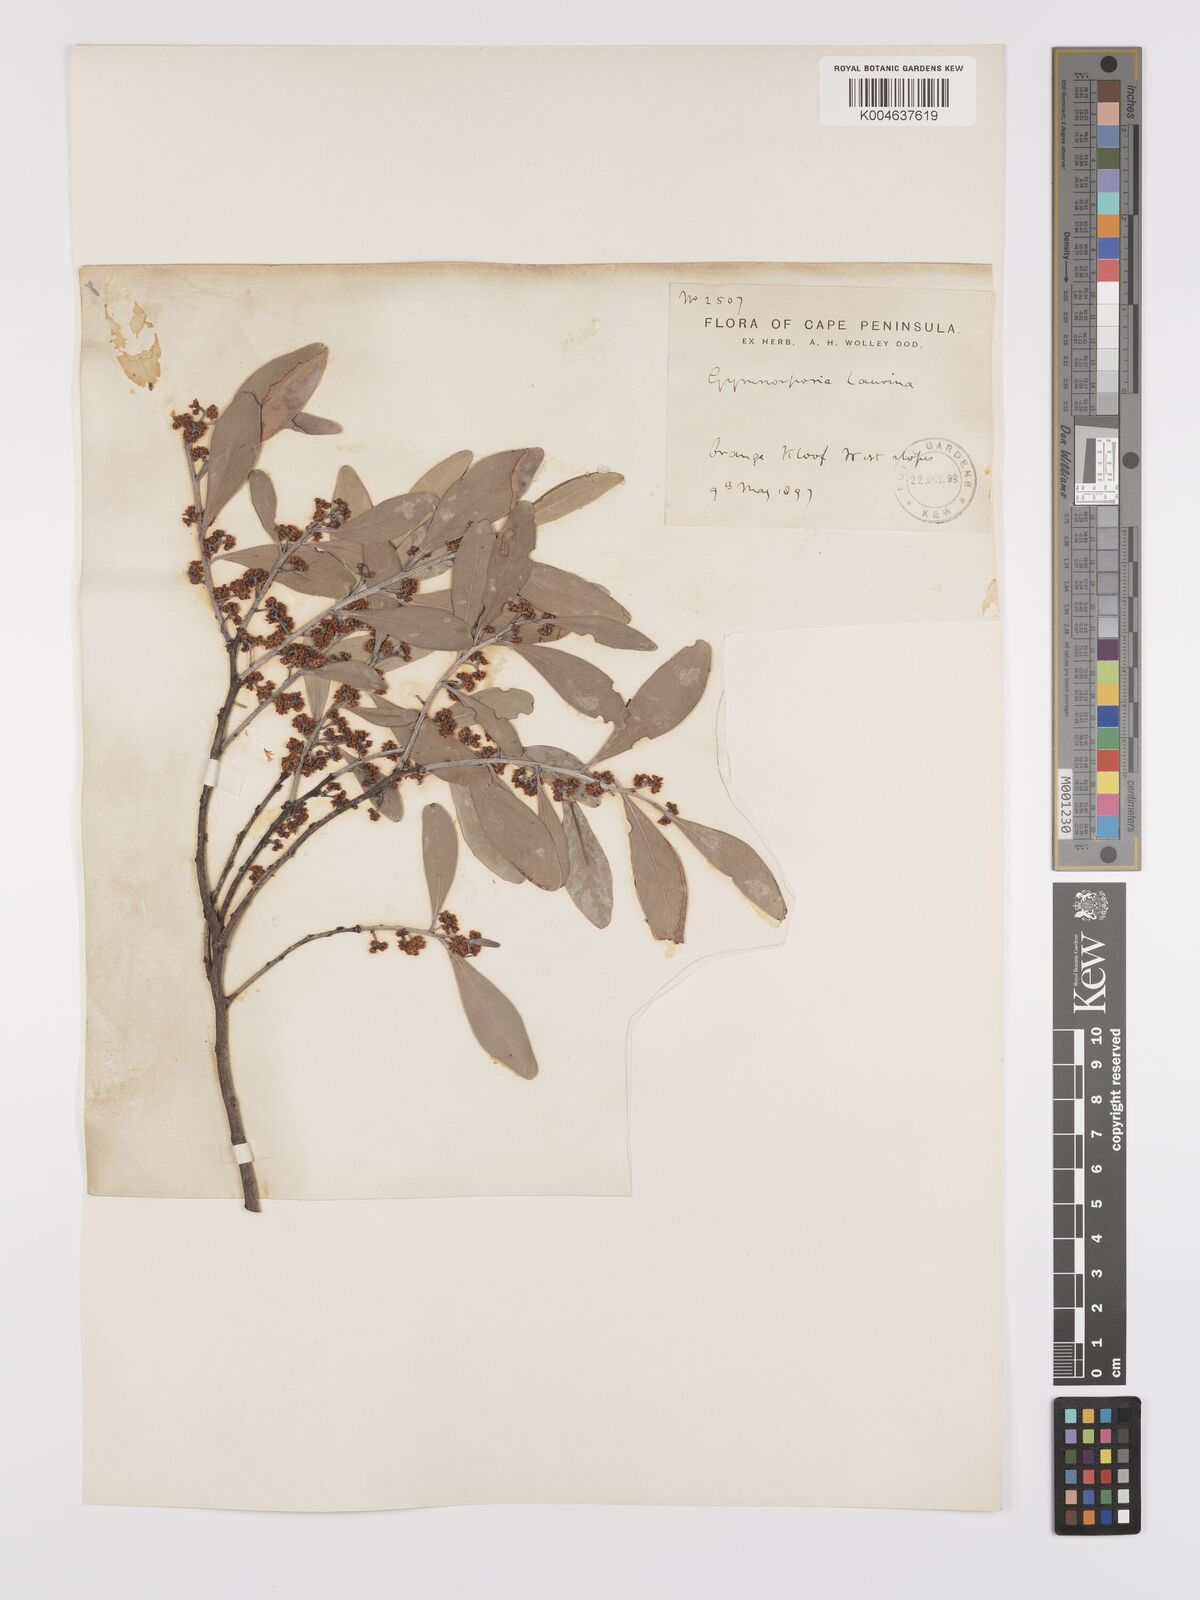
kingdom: Plantae
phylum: Tracheophyta
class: Magnoliopsida
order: Celastrales
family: Celastraceae
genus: Monteverdia
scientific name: Monteverdia laurina
